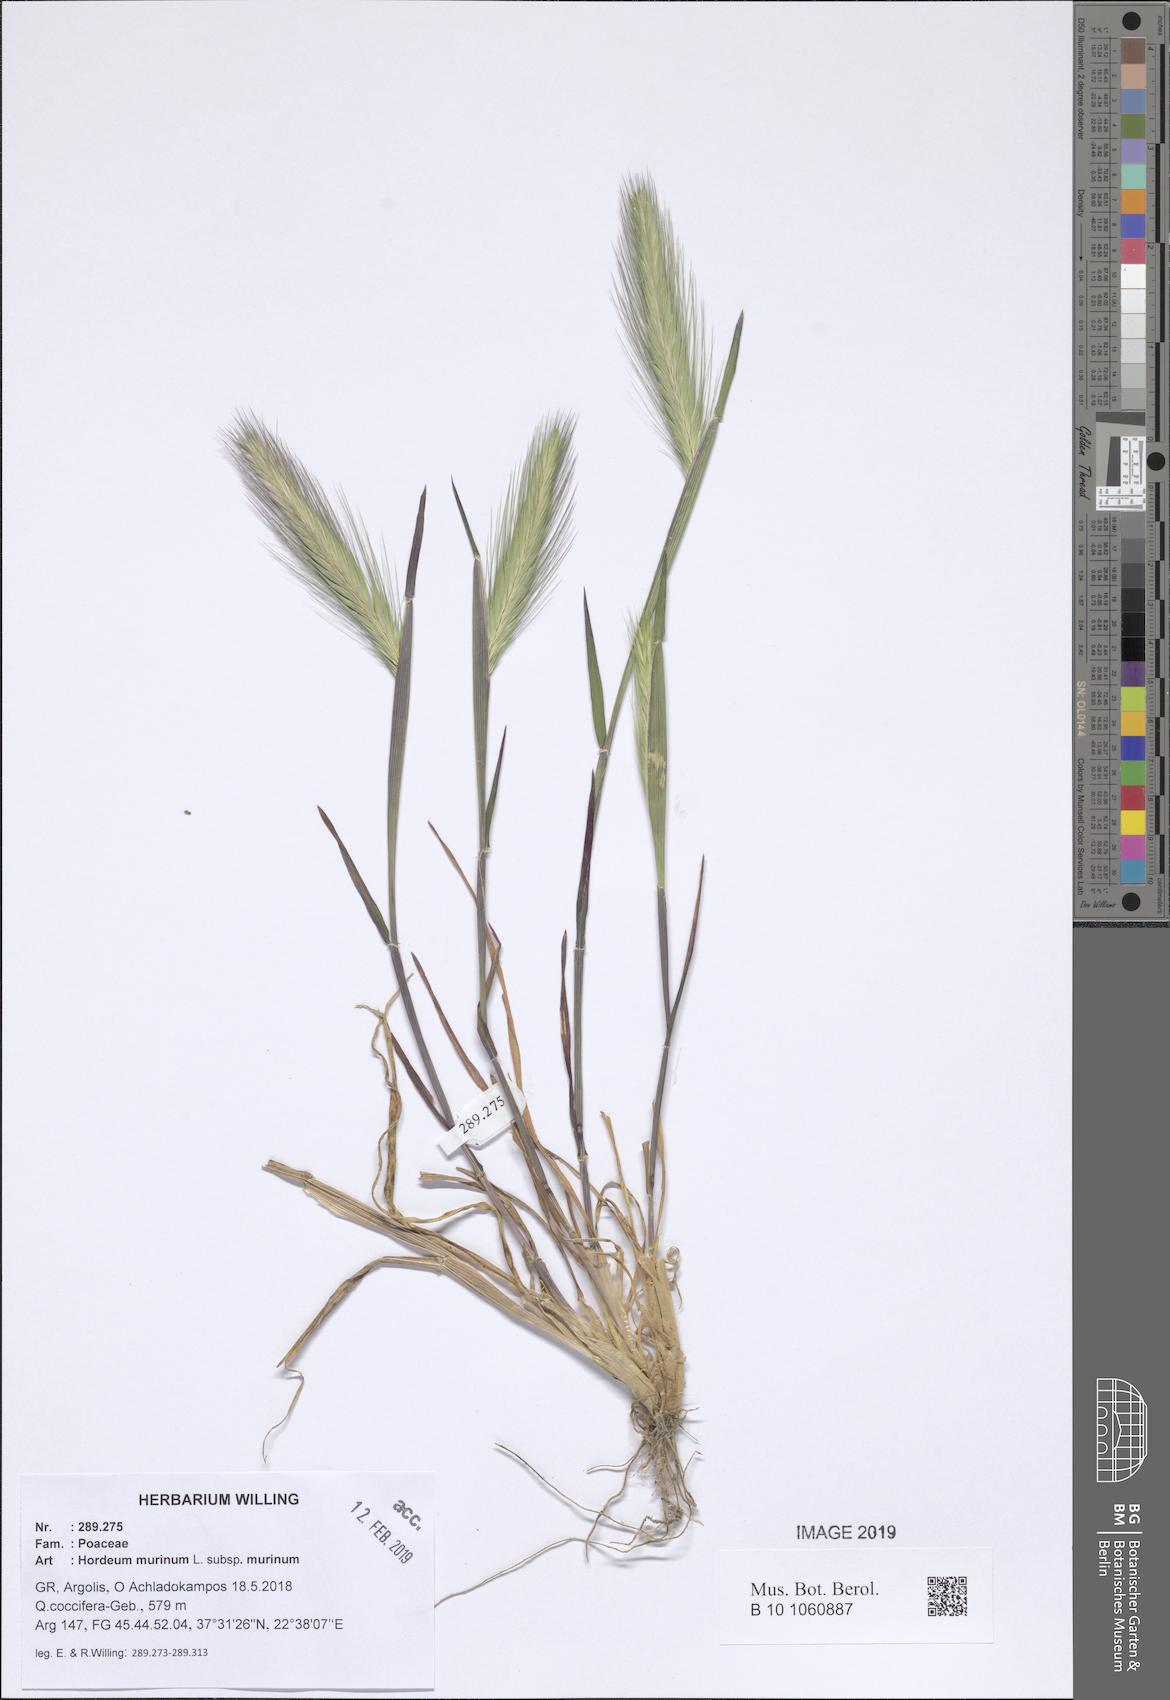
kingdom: Plantae
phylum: Tracheophyta
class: Liliopsida
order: Poales
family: Poaceae
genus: Hordeum
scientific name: Hordeum murinum
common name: Wall barley
